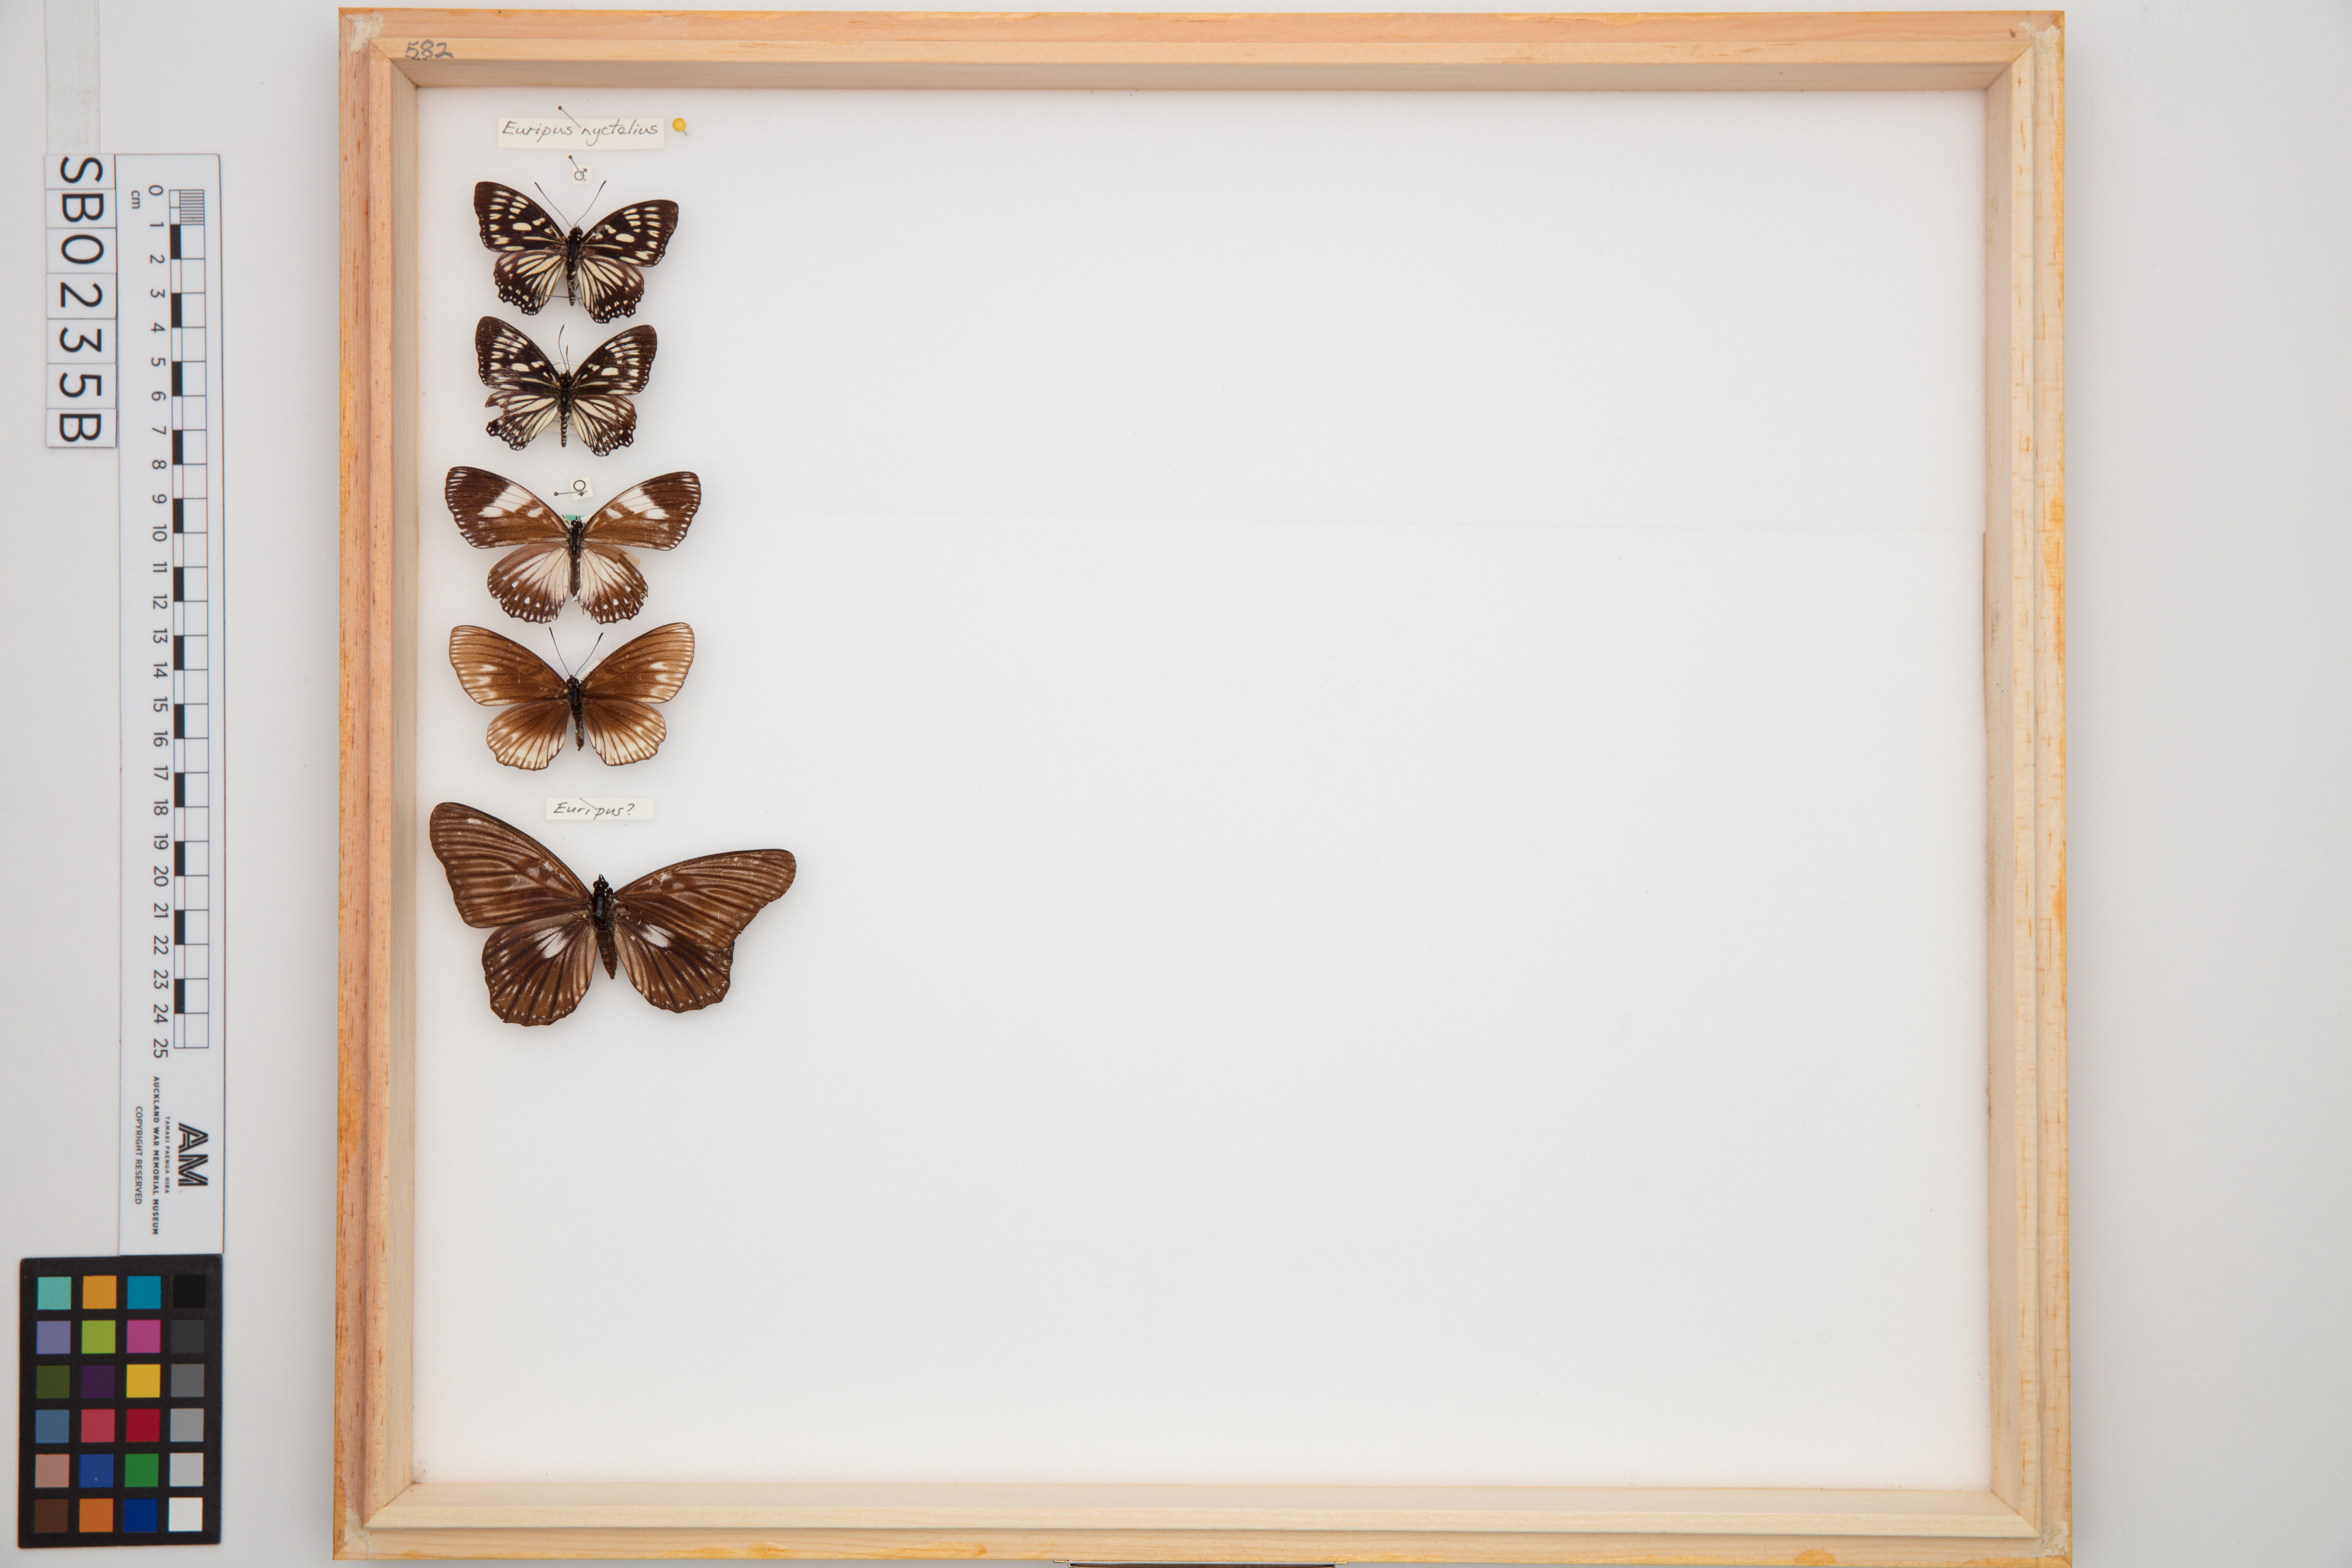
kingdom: Animalia
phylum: Arthropoda
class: Insecta
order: Lepidoptera
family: Nymphalidae
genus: Euripus
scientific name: Euripus nyctelius
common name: Courtesan
